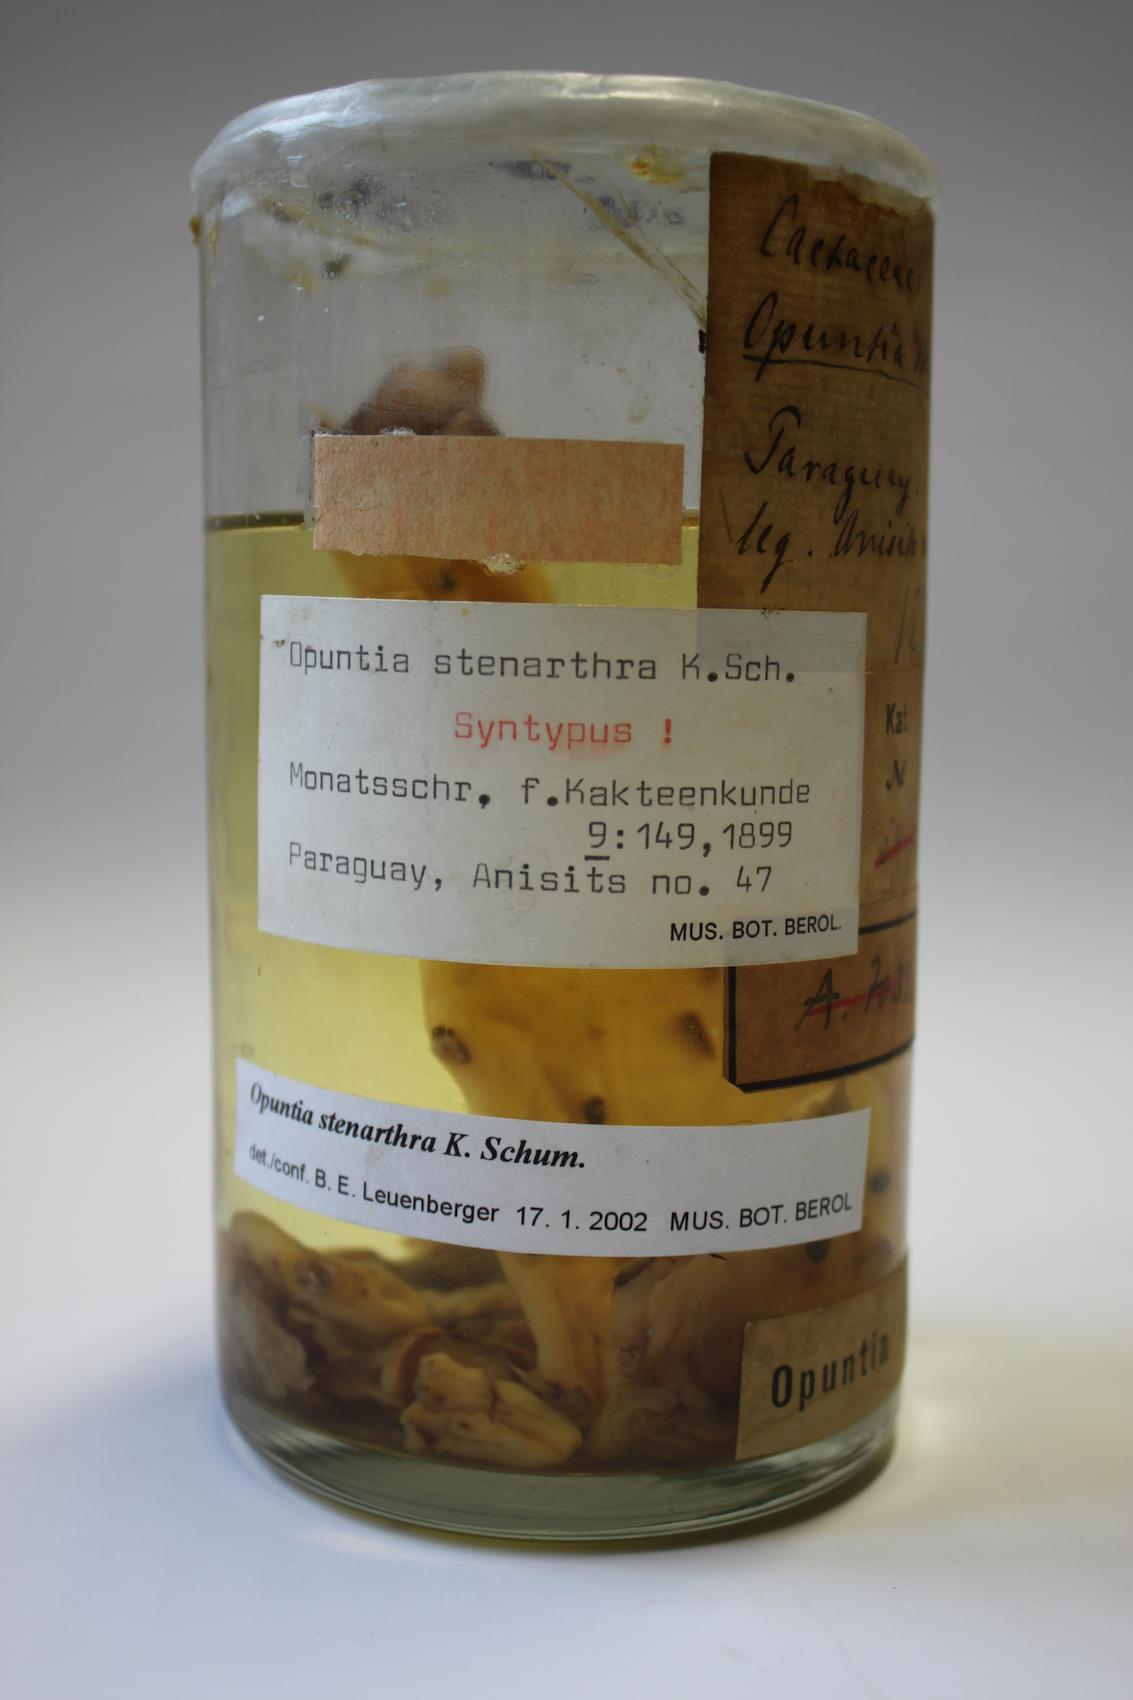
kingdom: Plantae
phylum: Tracheophyta
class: Magnoliopsida
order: Caryophyllales
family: Cactaceae
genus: Opuntia
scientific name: Opuntia stenarthra
